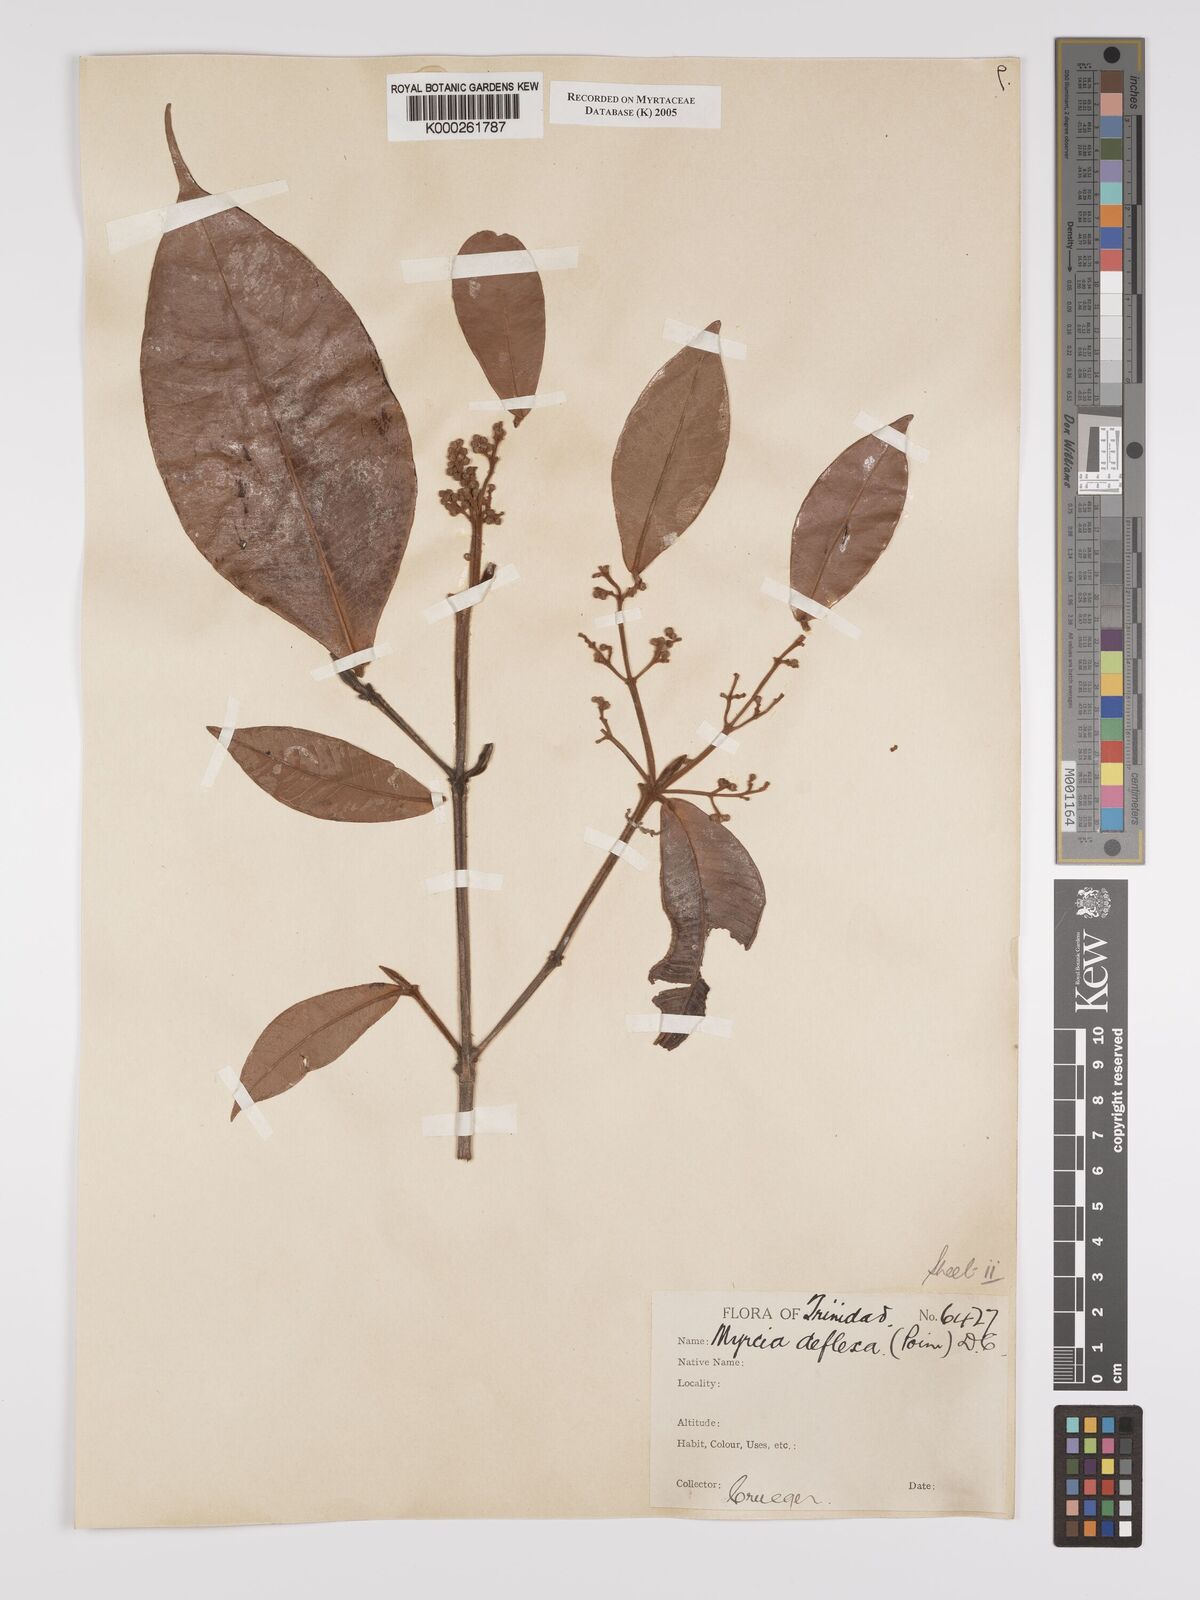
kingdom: Plantae
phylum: Tracheophyta
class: Magnoliopsida
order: Myrtales
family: Myrtaceae
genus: Myrcia
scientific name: Myrcia deflexa
